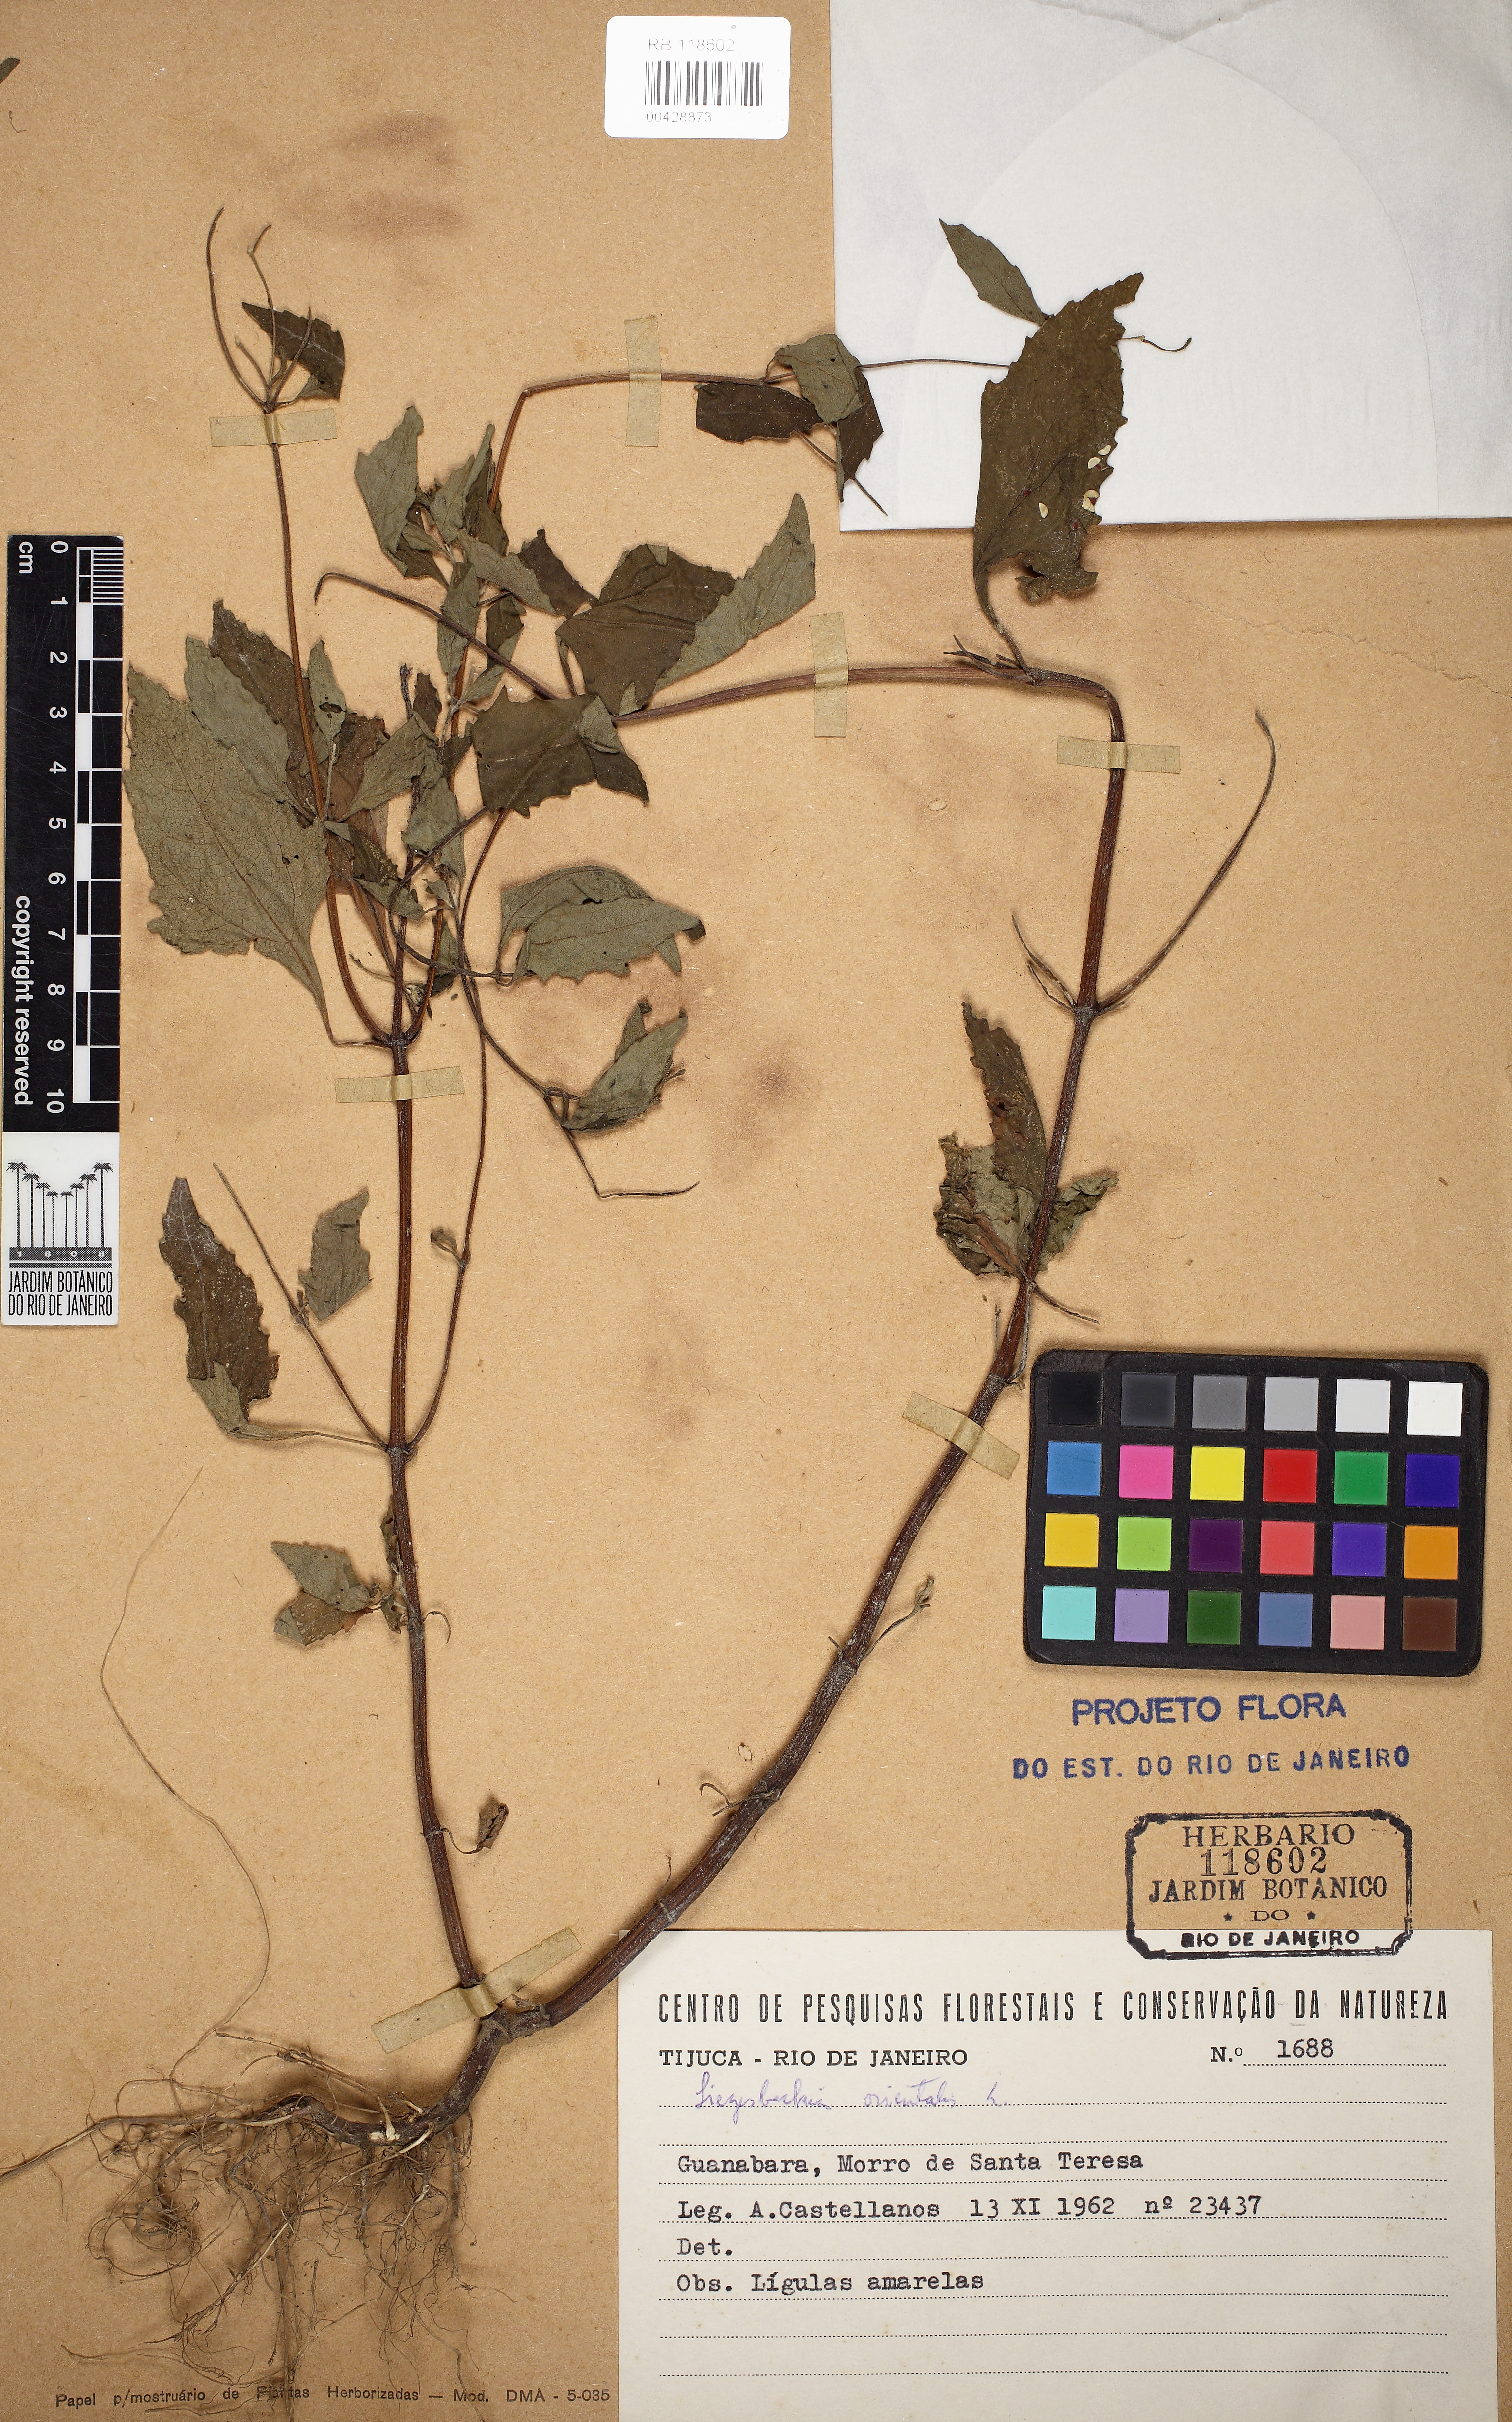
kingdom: Plantae
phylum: Tracheophyta
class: Magnoliopsida
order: Asterales
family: Asteraceae
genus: Sigesbeckia
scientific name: Sigesbeckia orientalis
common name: Eastern st paul's-wort
